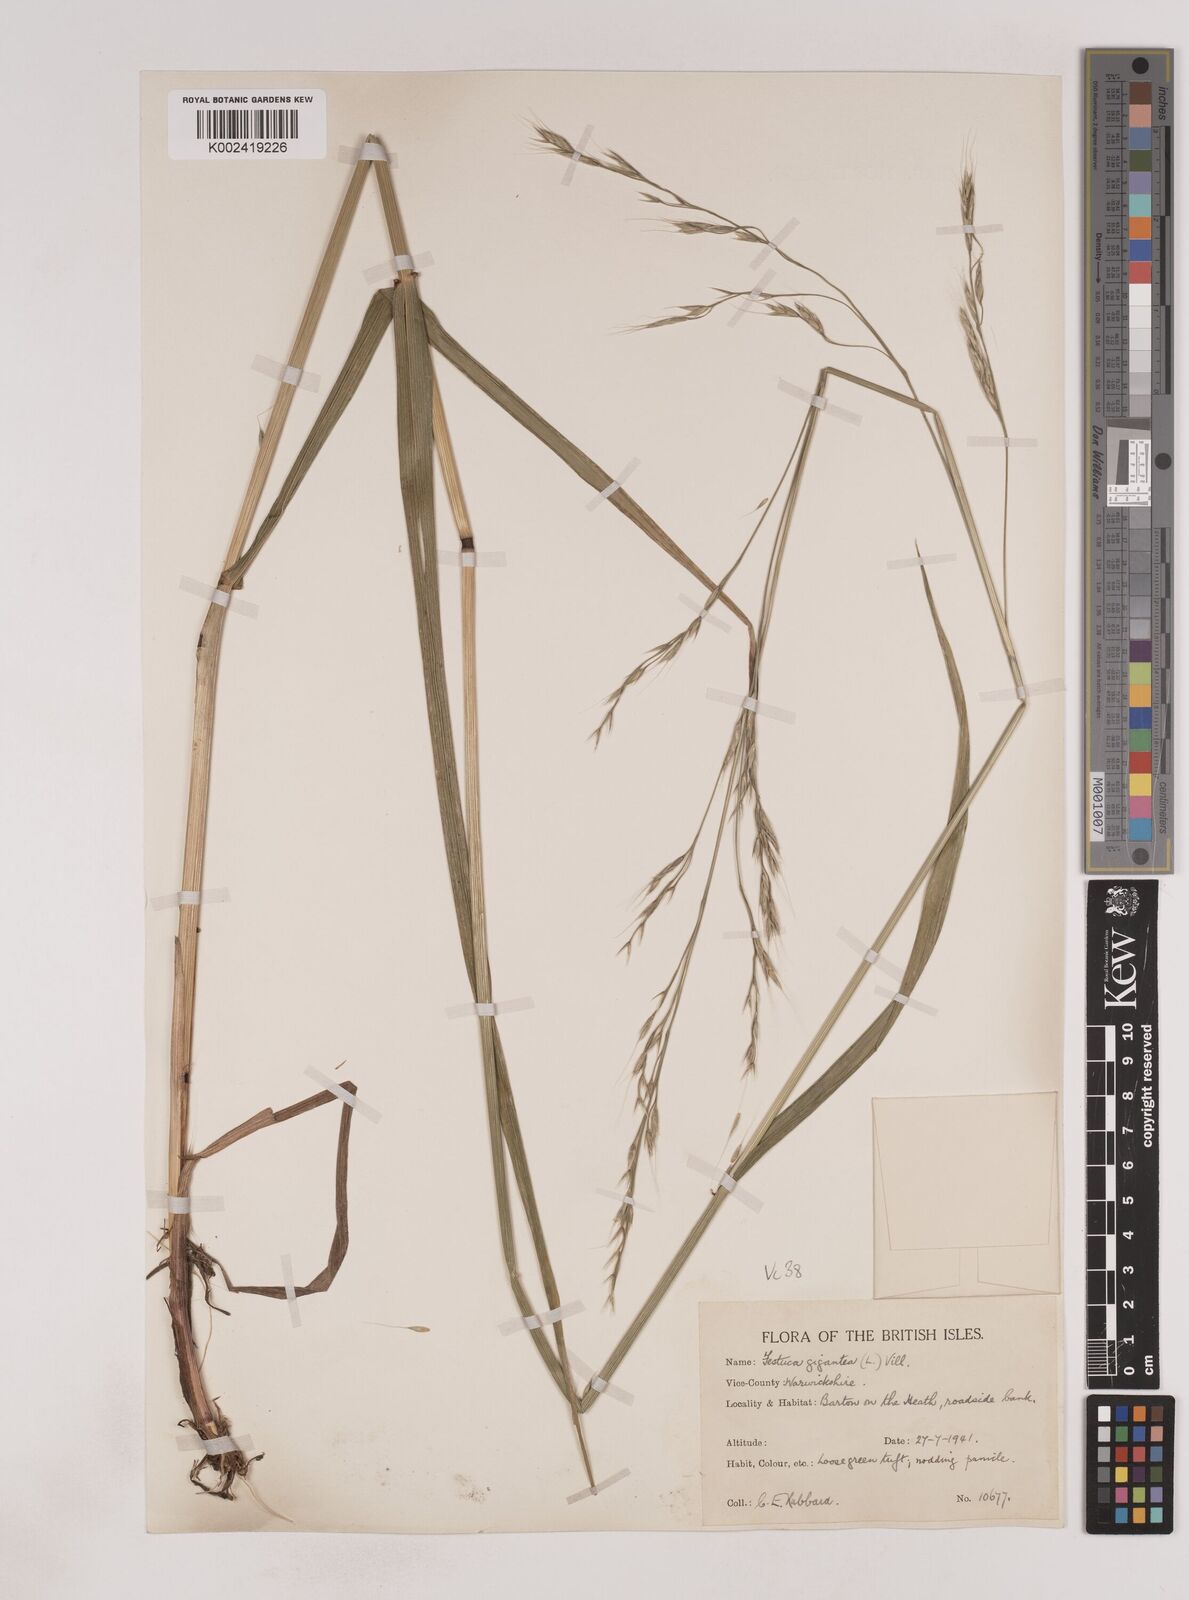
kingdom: Plantae
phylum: Tracheophyta
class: Liliopsida
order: Poales
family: Poaceae
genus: Lolium
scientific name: Lolium giganteum
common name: Giant fescue
